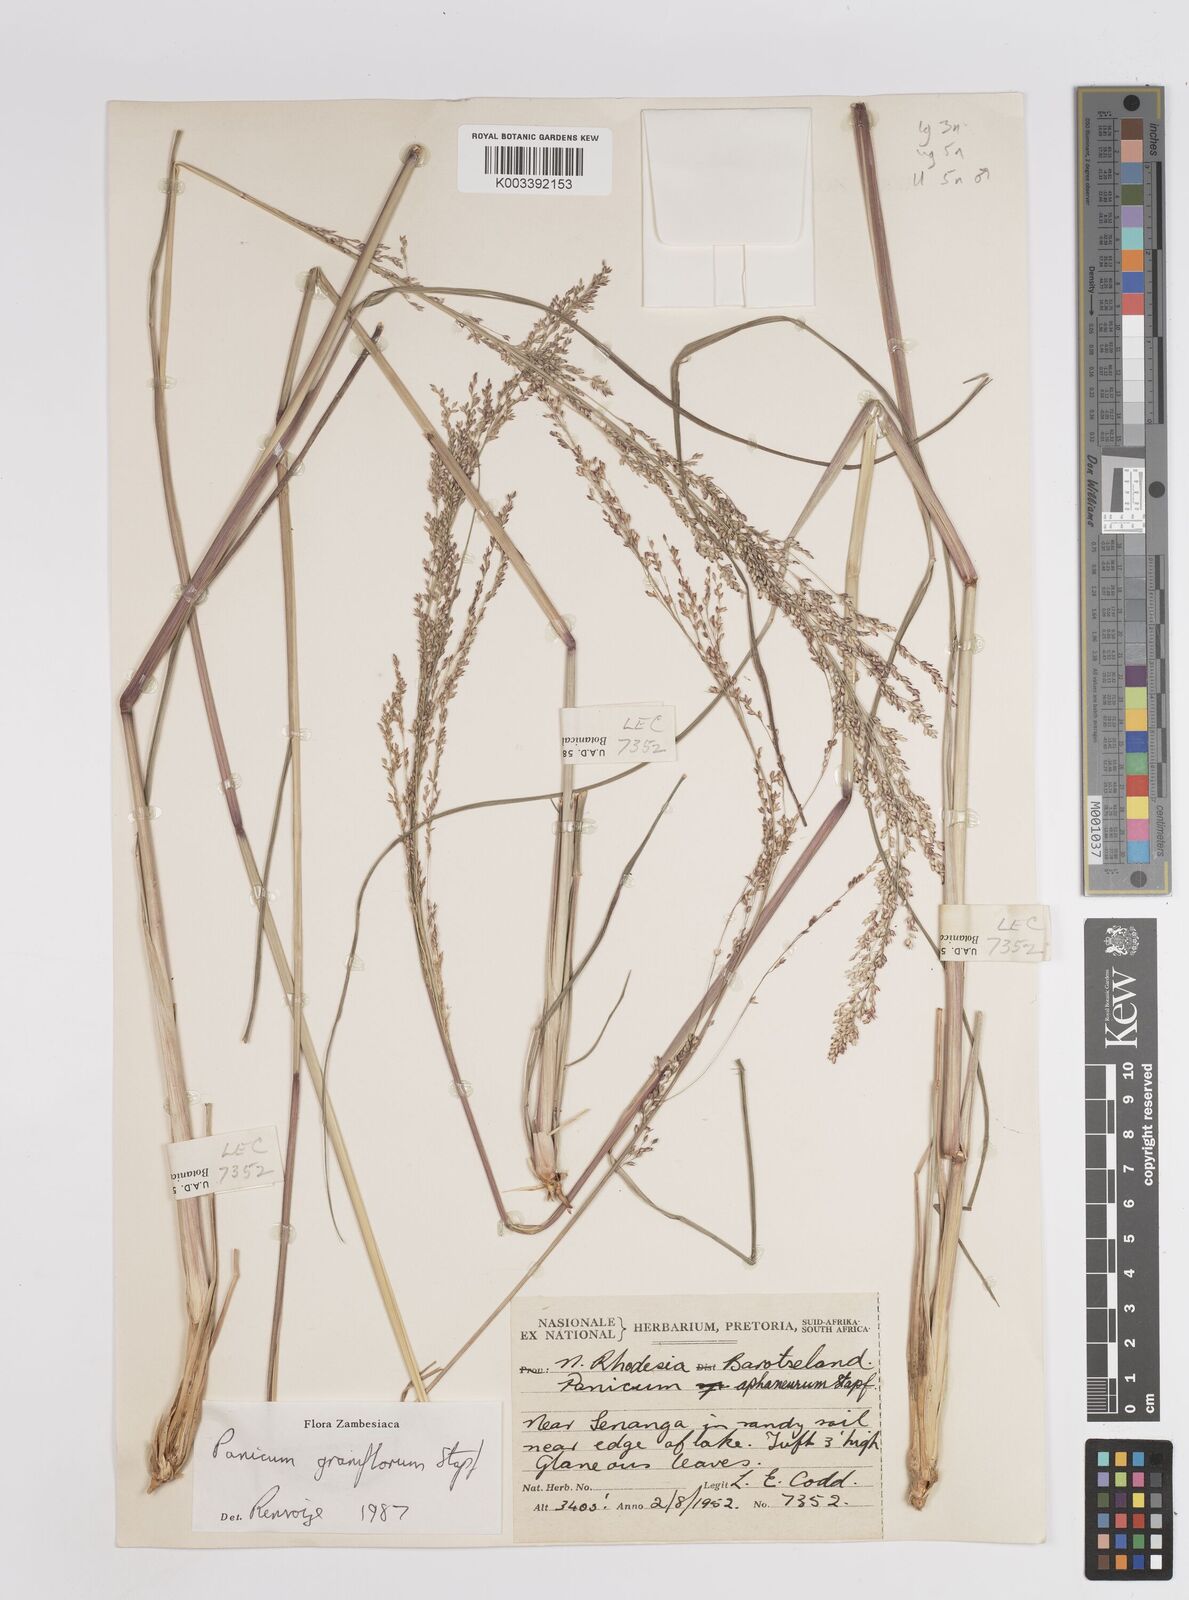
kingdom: Plantae
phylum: Tracheophyta
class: Liliopsida
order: Poales
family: Poaceae
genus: Panicum
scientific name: Panicum graniflorum
